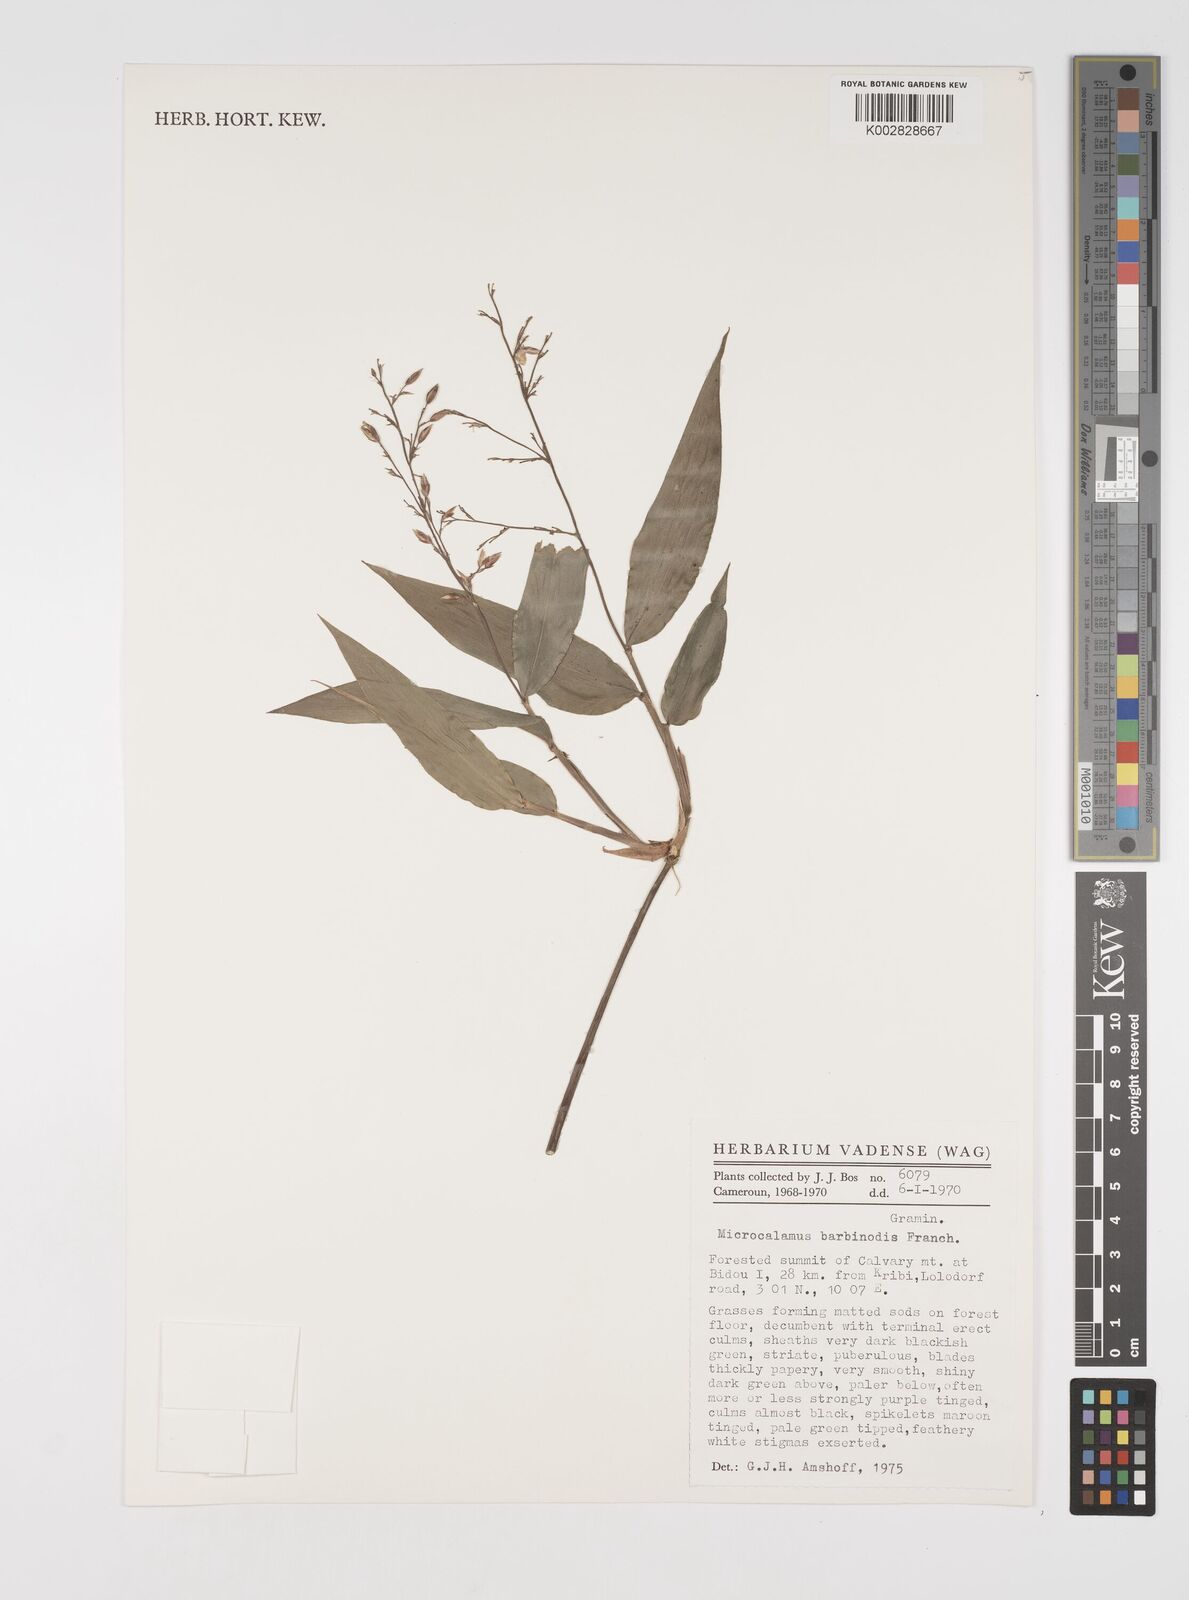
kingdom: Plantae
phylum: Tracheophyta
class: Liliopsida
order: Poales
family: Poaceae
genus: Microcalamus
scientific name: Microcalamus barbinodis
